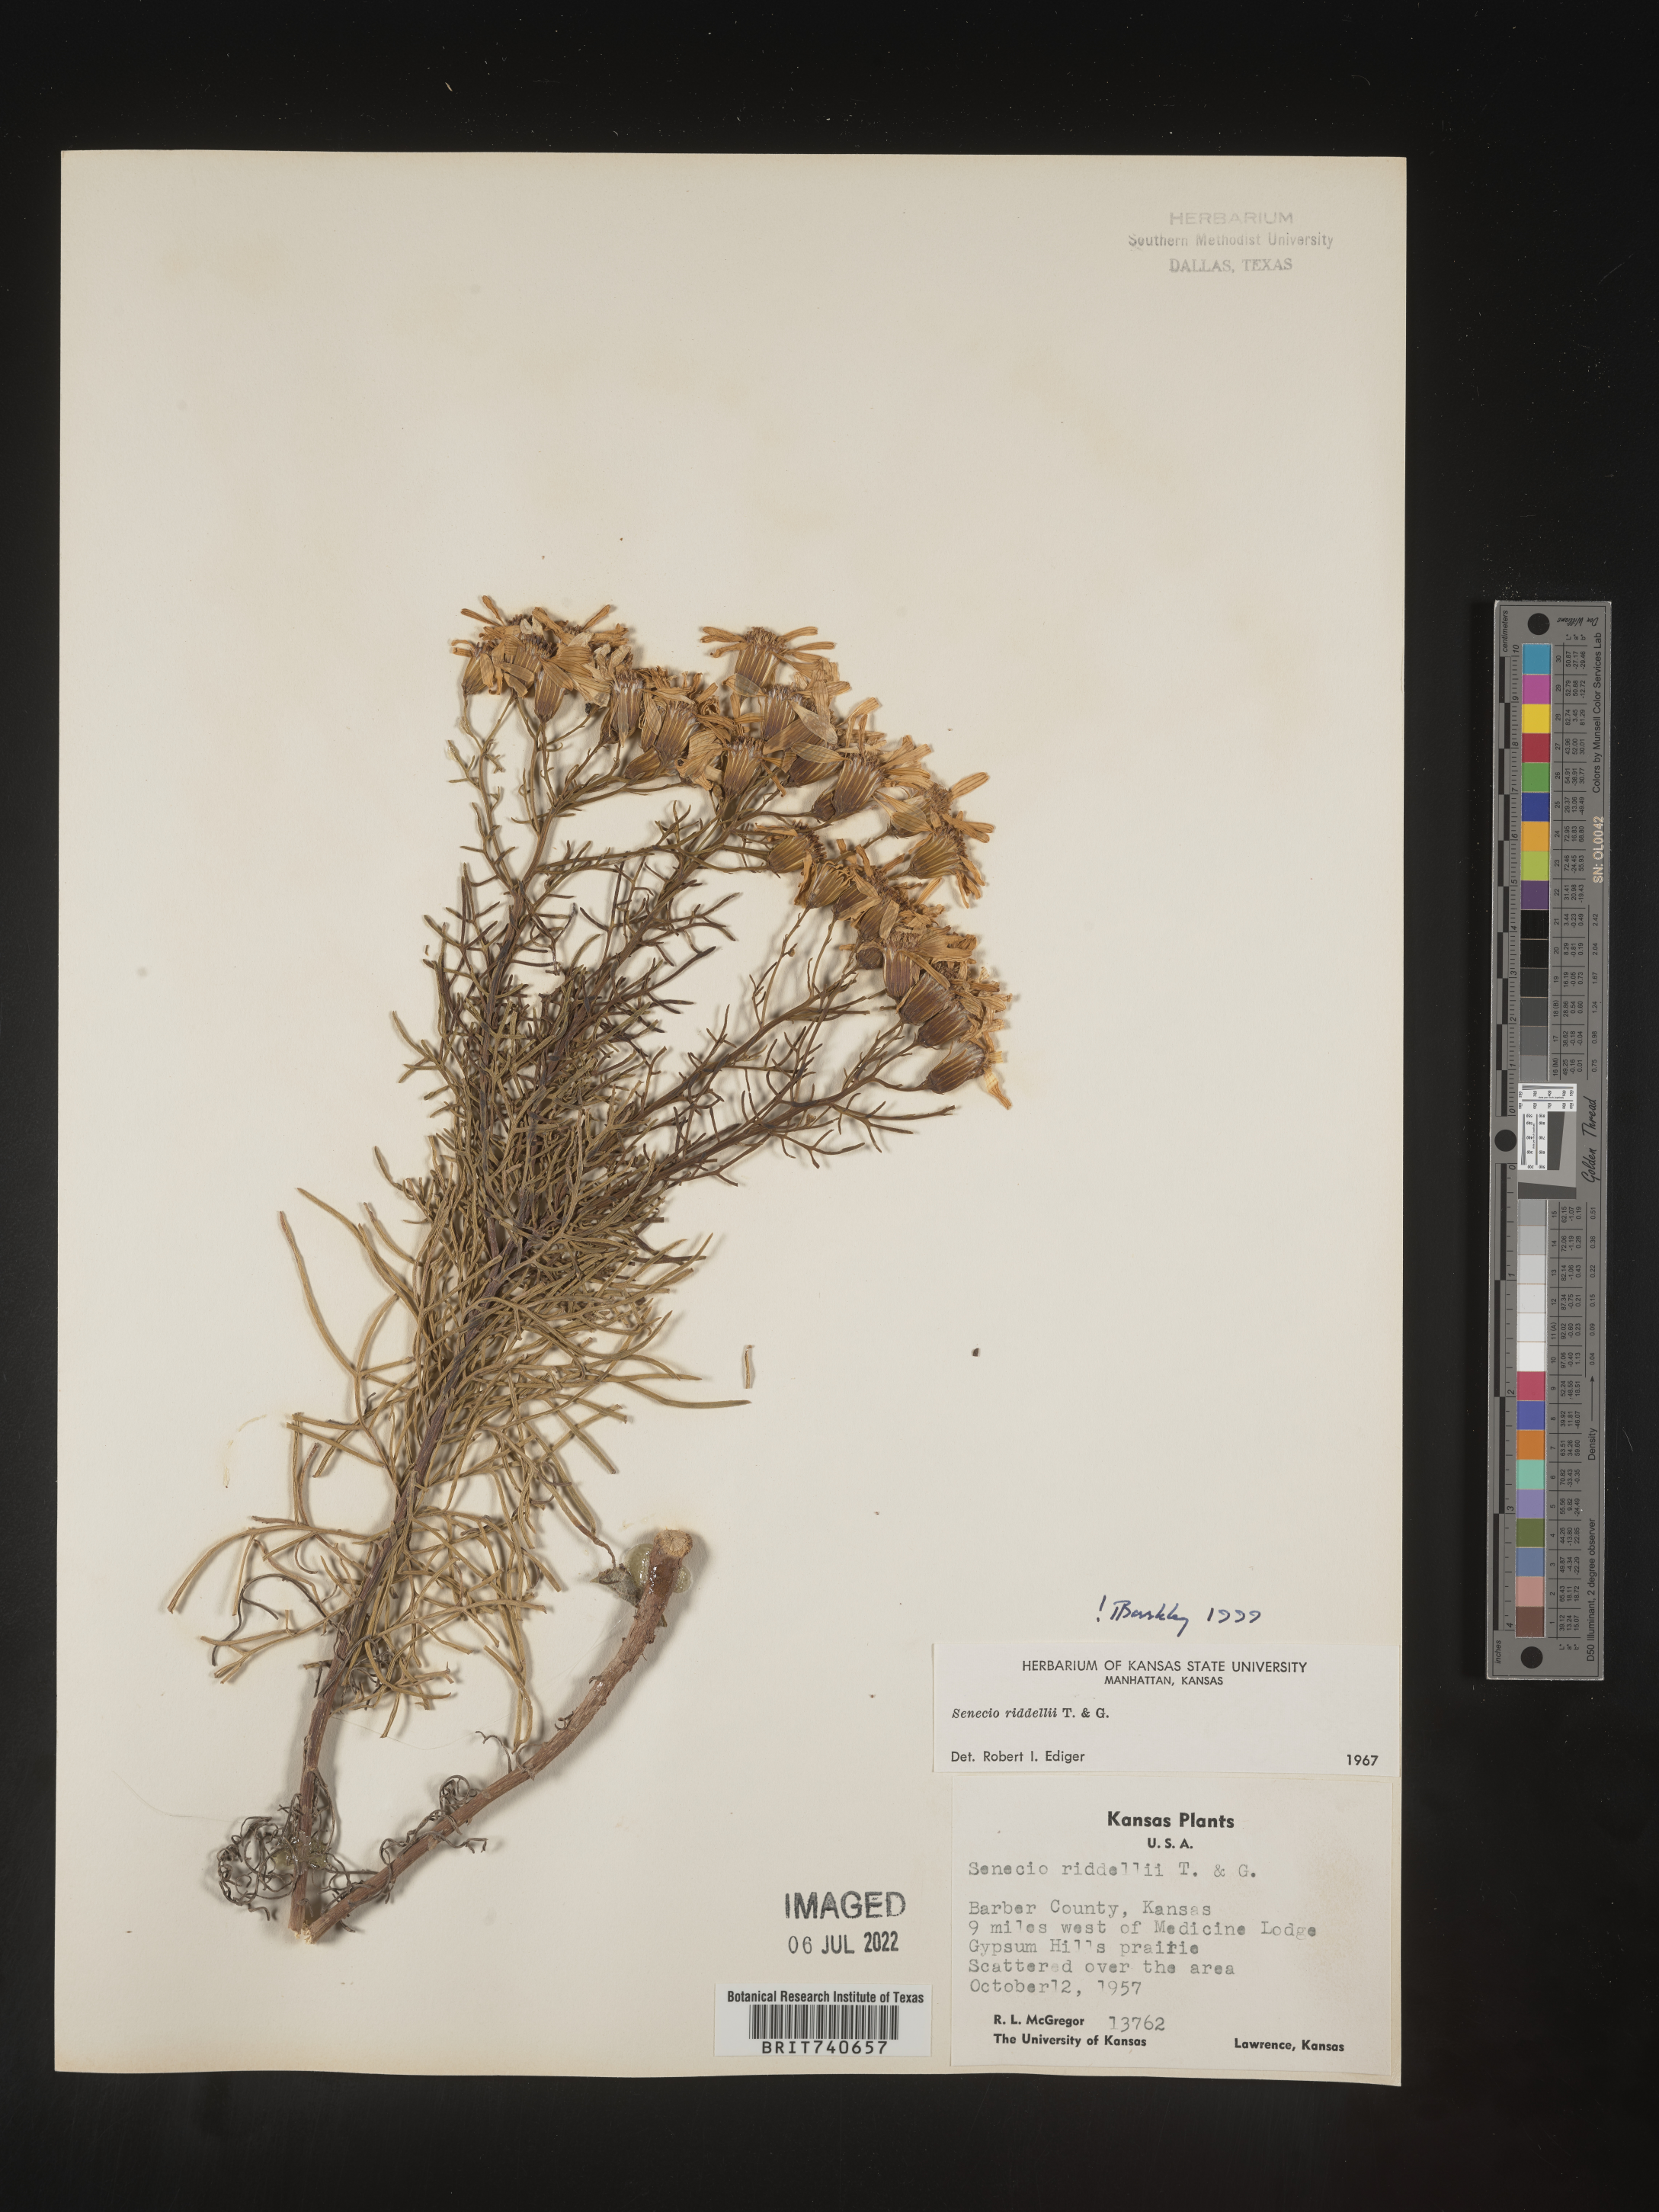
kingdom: Plantae
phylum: Tracheophyta
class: Magnoliopsida
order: Asterales
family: Asteraceae
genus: Senecio
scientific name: Senecio riddellii
